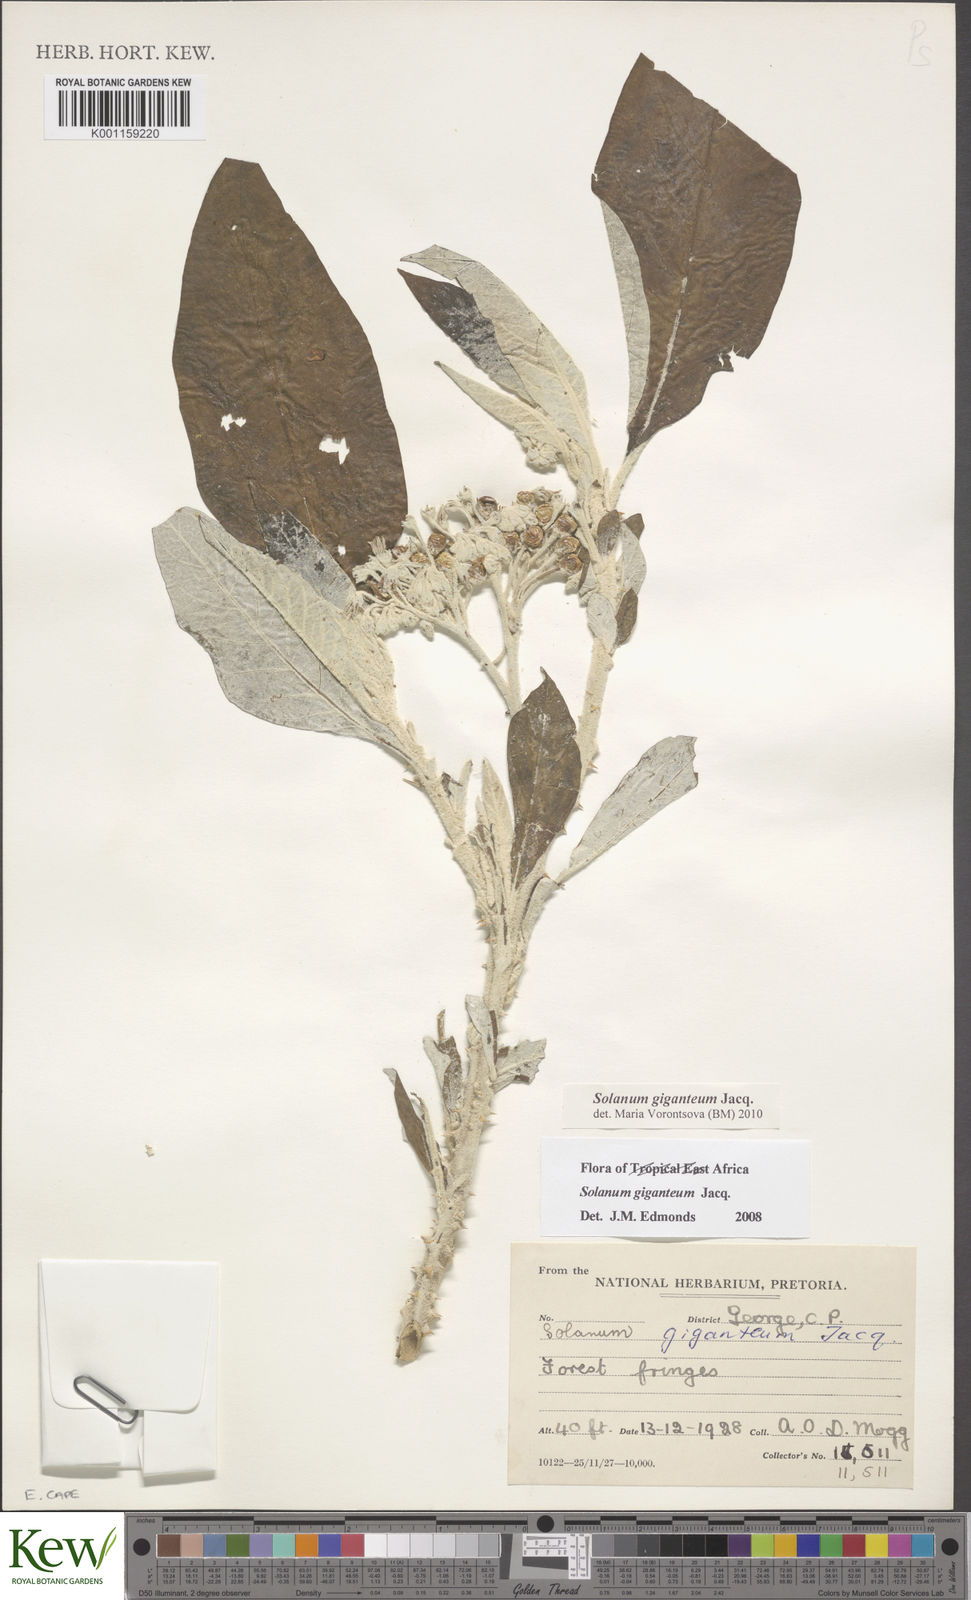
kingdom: Plantae
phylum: Tracheophyta
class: Magnoliopsida
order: Solanales
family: Solanaceae
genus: Solanum
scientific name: Solanum giganteum
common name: Healing-leaf-tree
